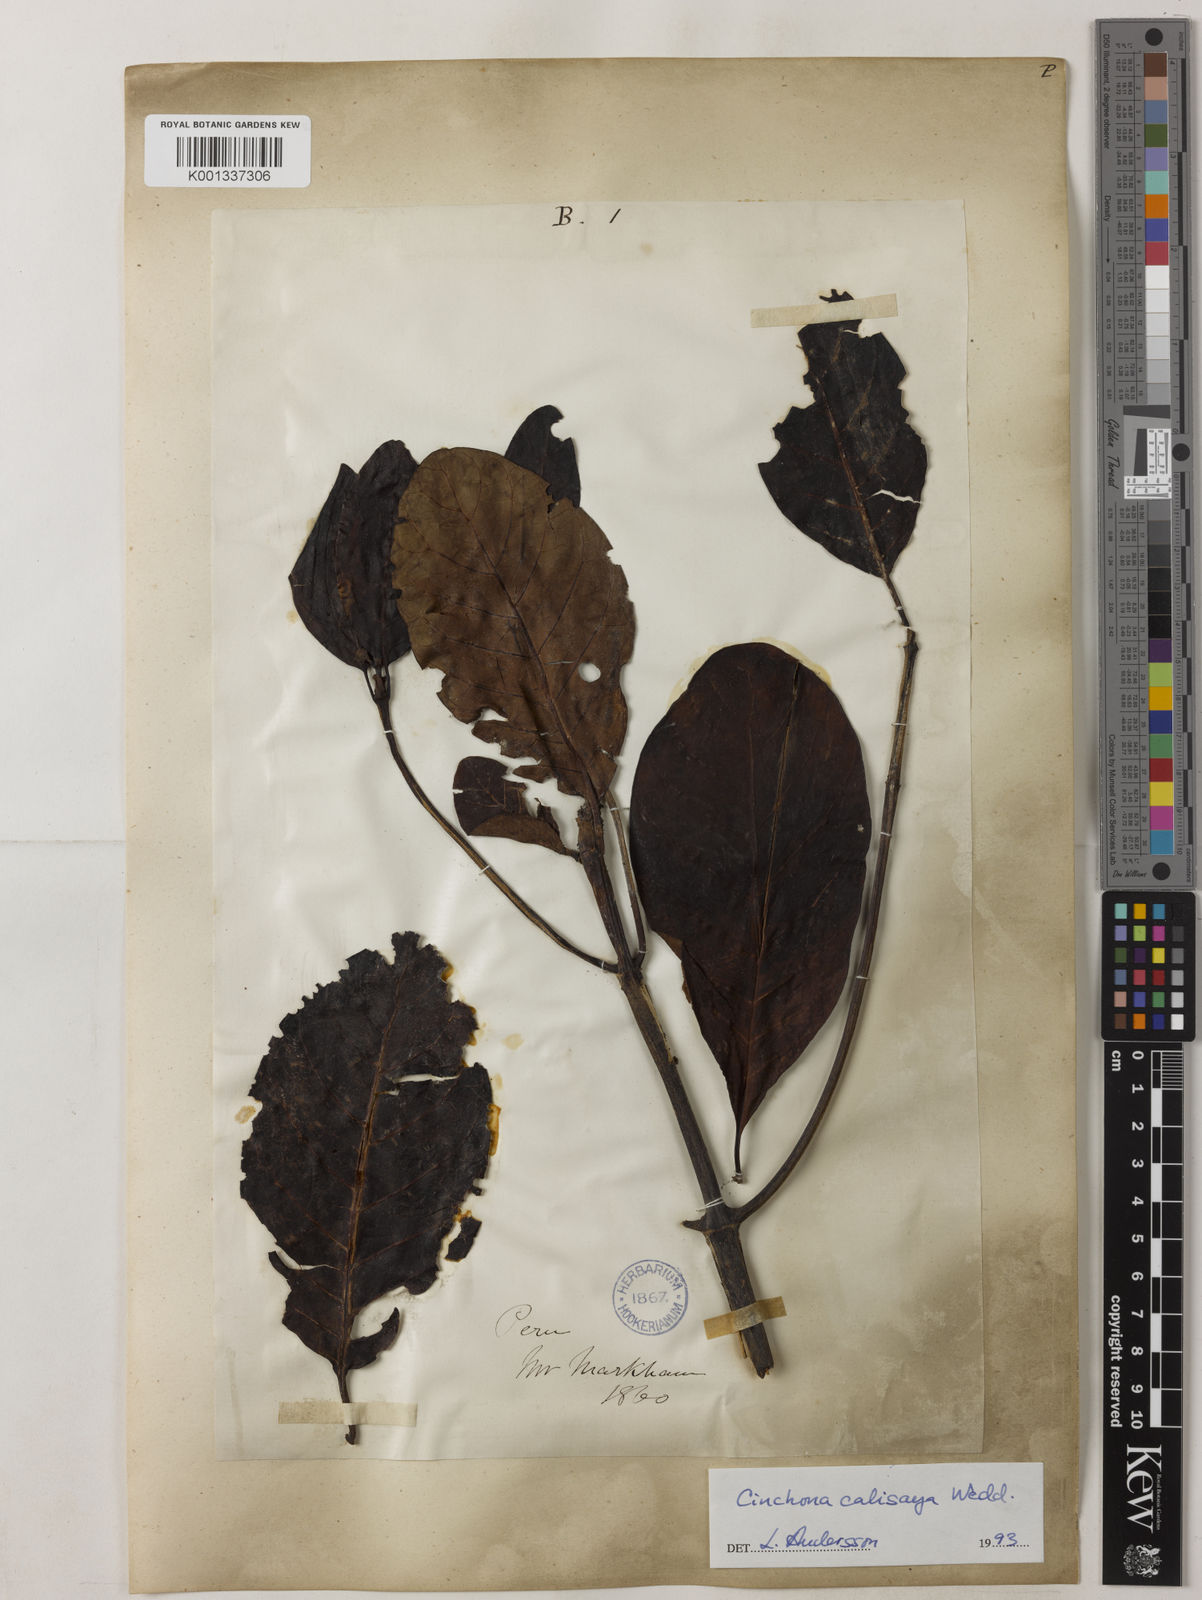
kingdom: Plantae
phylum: Tracheophyta
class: Magnoliopsida
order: Gentianales
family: Rubiaceae
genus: Cinchona
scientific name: Cinchona calisaya
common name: Ledgerbark
